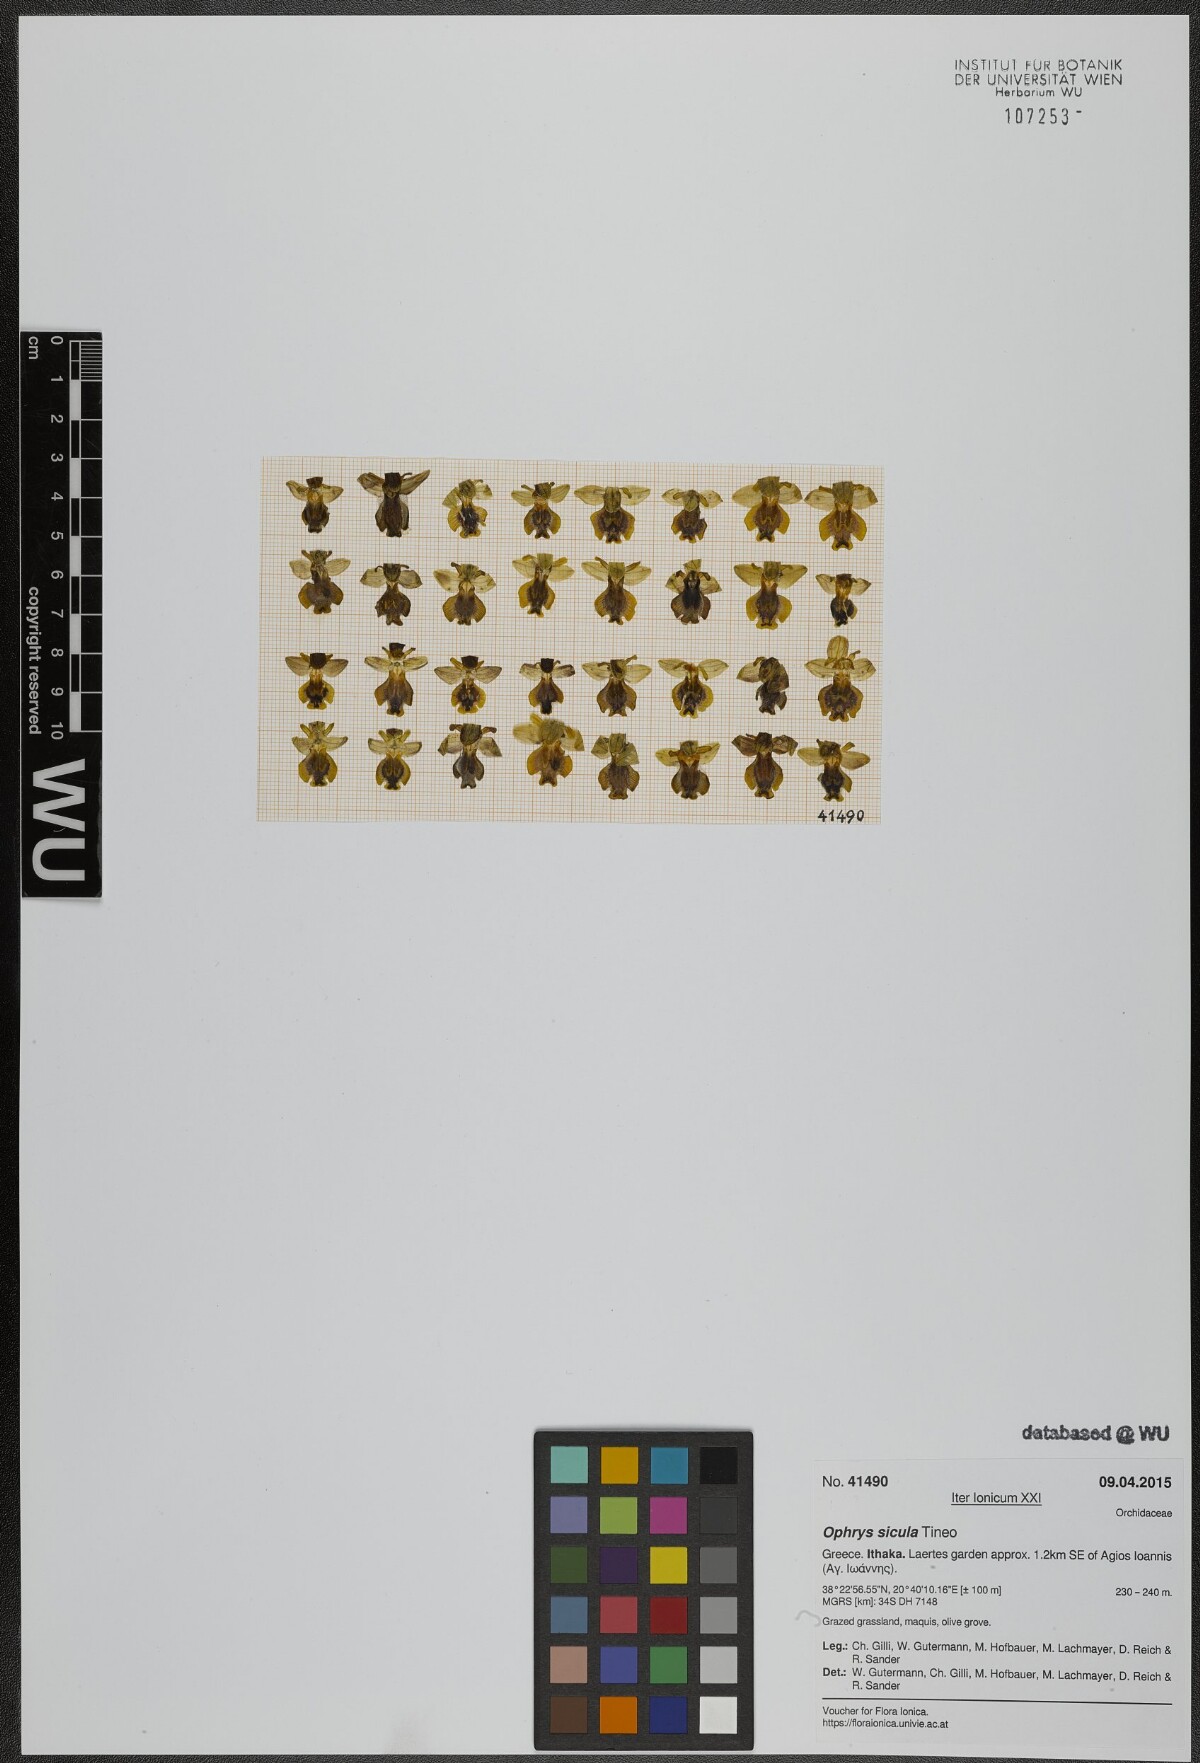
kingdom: Plantae
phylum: Tracheophyta
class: Liliopsida
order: Asparagales
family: Orchidaceae
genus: Ophrys
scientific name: Ophrys lutea
